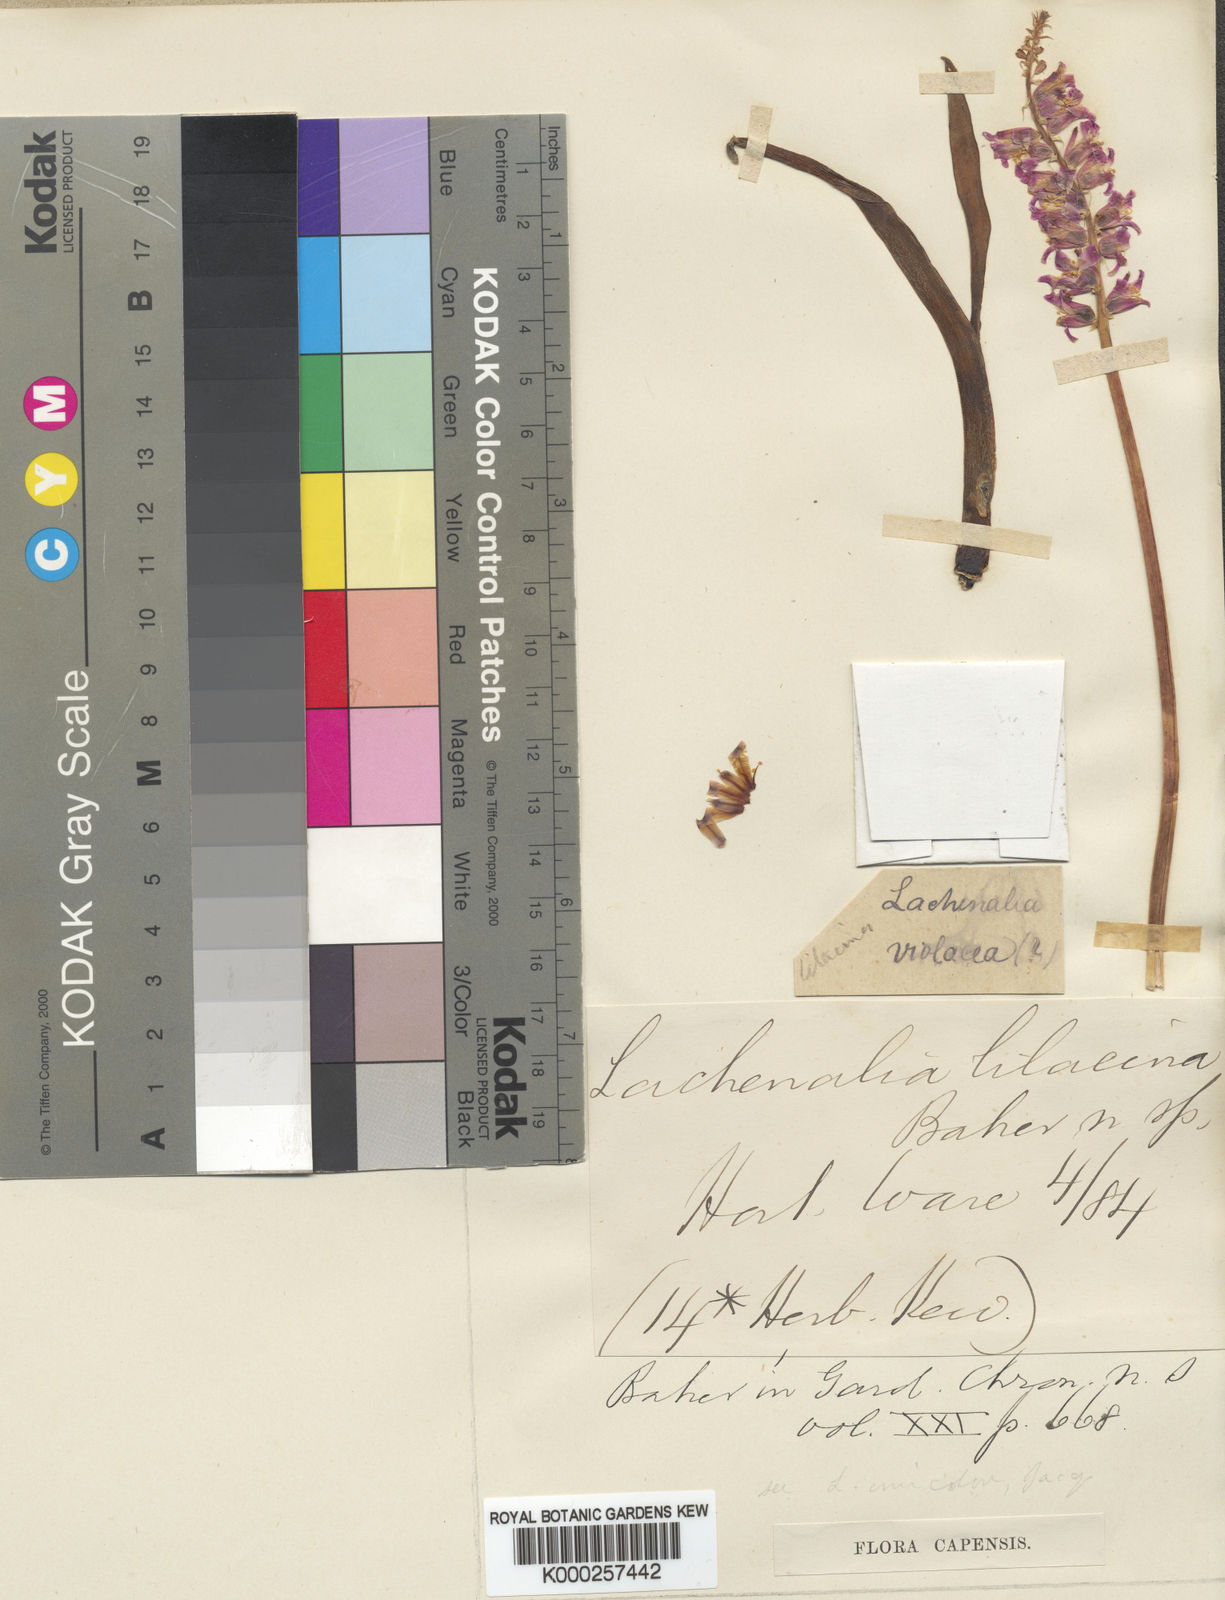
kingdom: Plantae
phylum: Tracheophyta
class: Liliopsida
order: Asparagales
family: Asparagaceae
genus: Lachenalia
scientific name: Lachenalia glaucina
